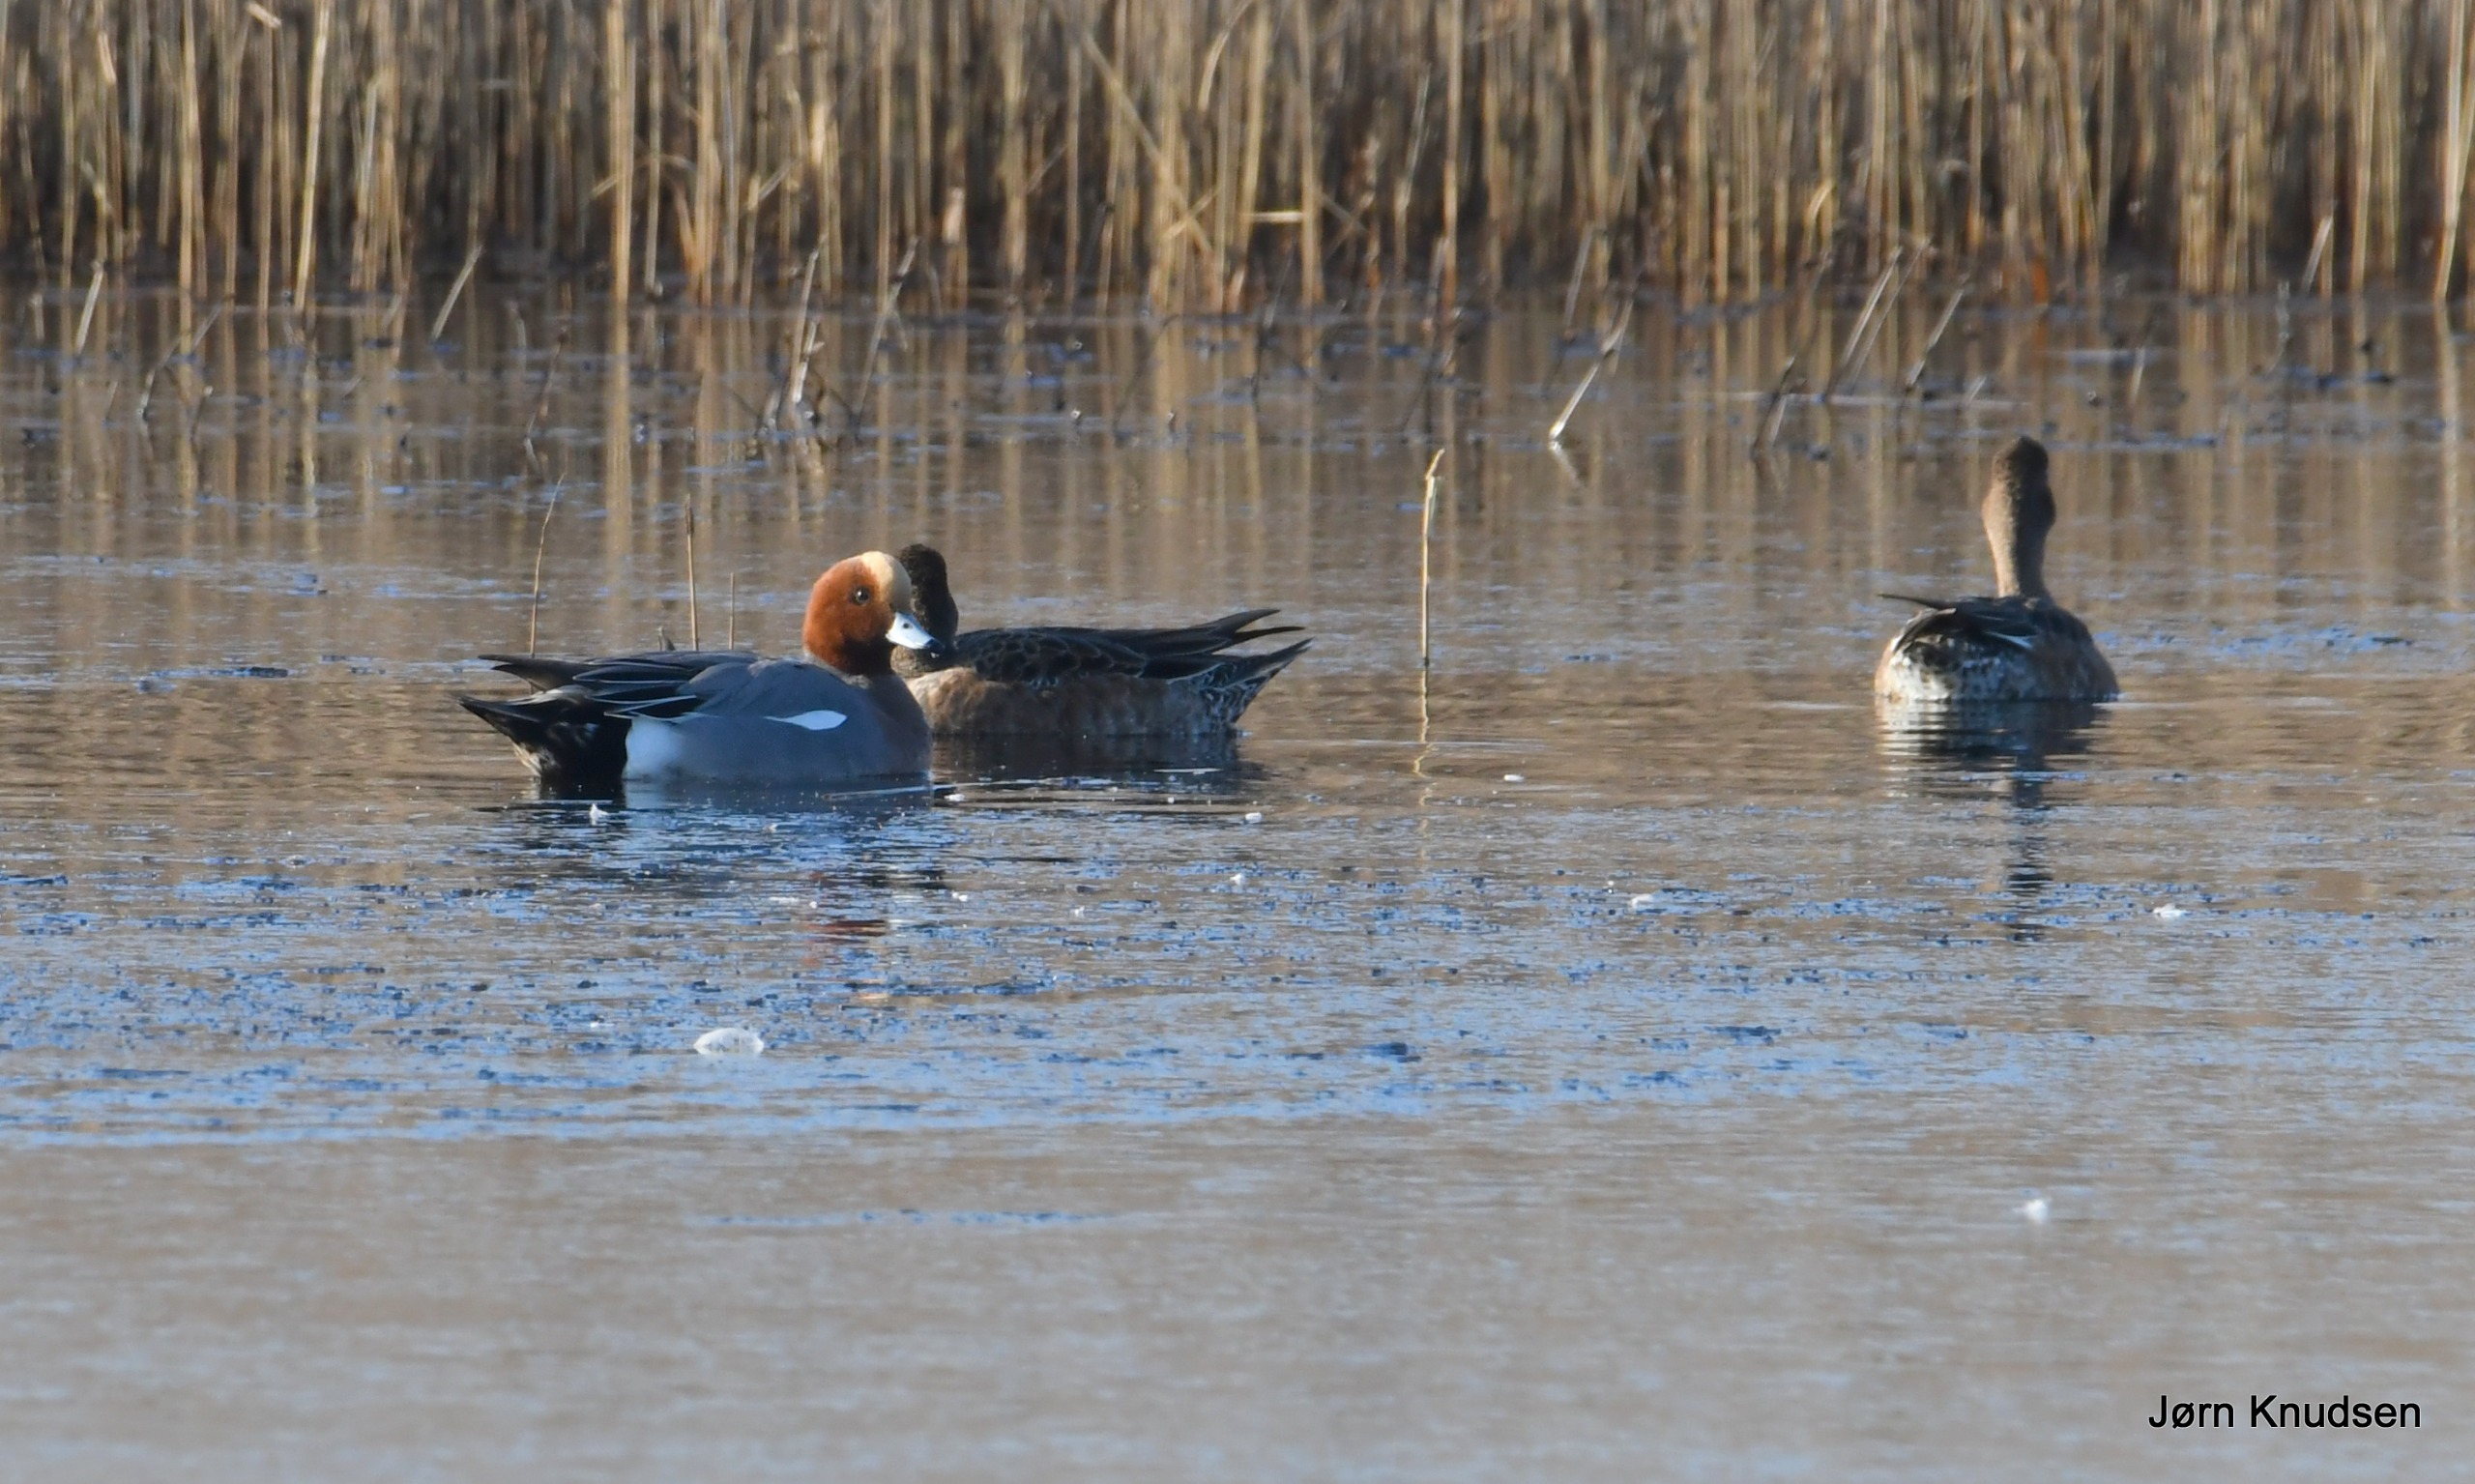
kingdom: Animalia
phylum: Chordata
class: Aves
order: Anseriformes
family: Anatidae
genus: Mareca
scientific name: Mareca penelope
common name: Pibeand
